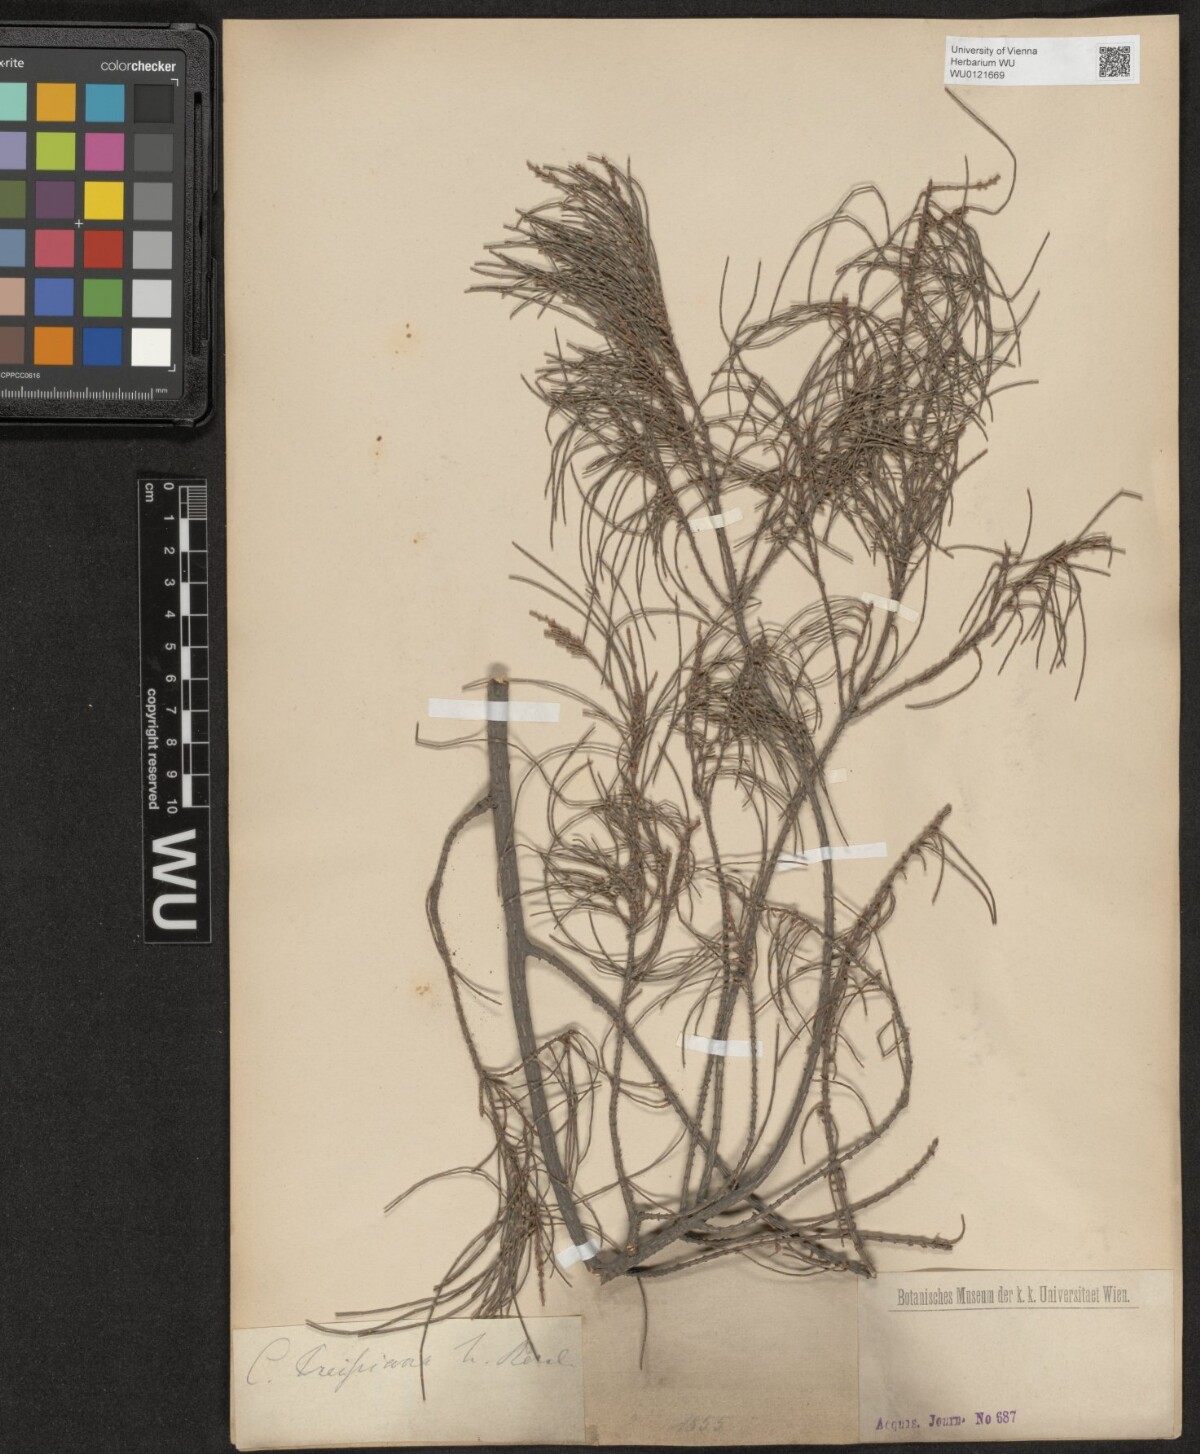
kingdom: Plantae
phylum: Tracheophyta
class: Magnoliopsida
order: Fagales
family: Casuarinaceae
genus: Allocasuarina
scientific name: Allocasuarina humilis
